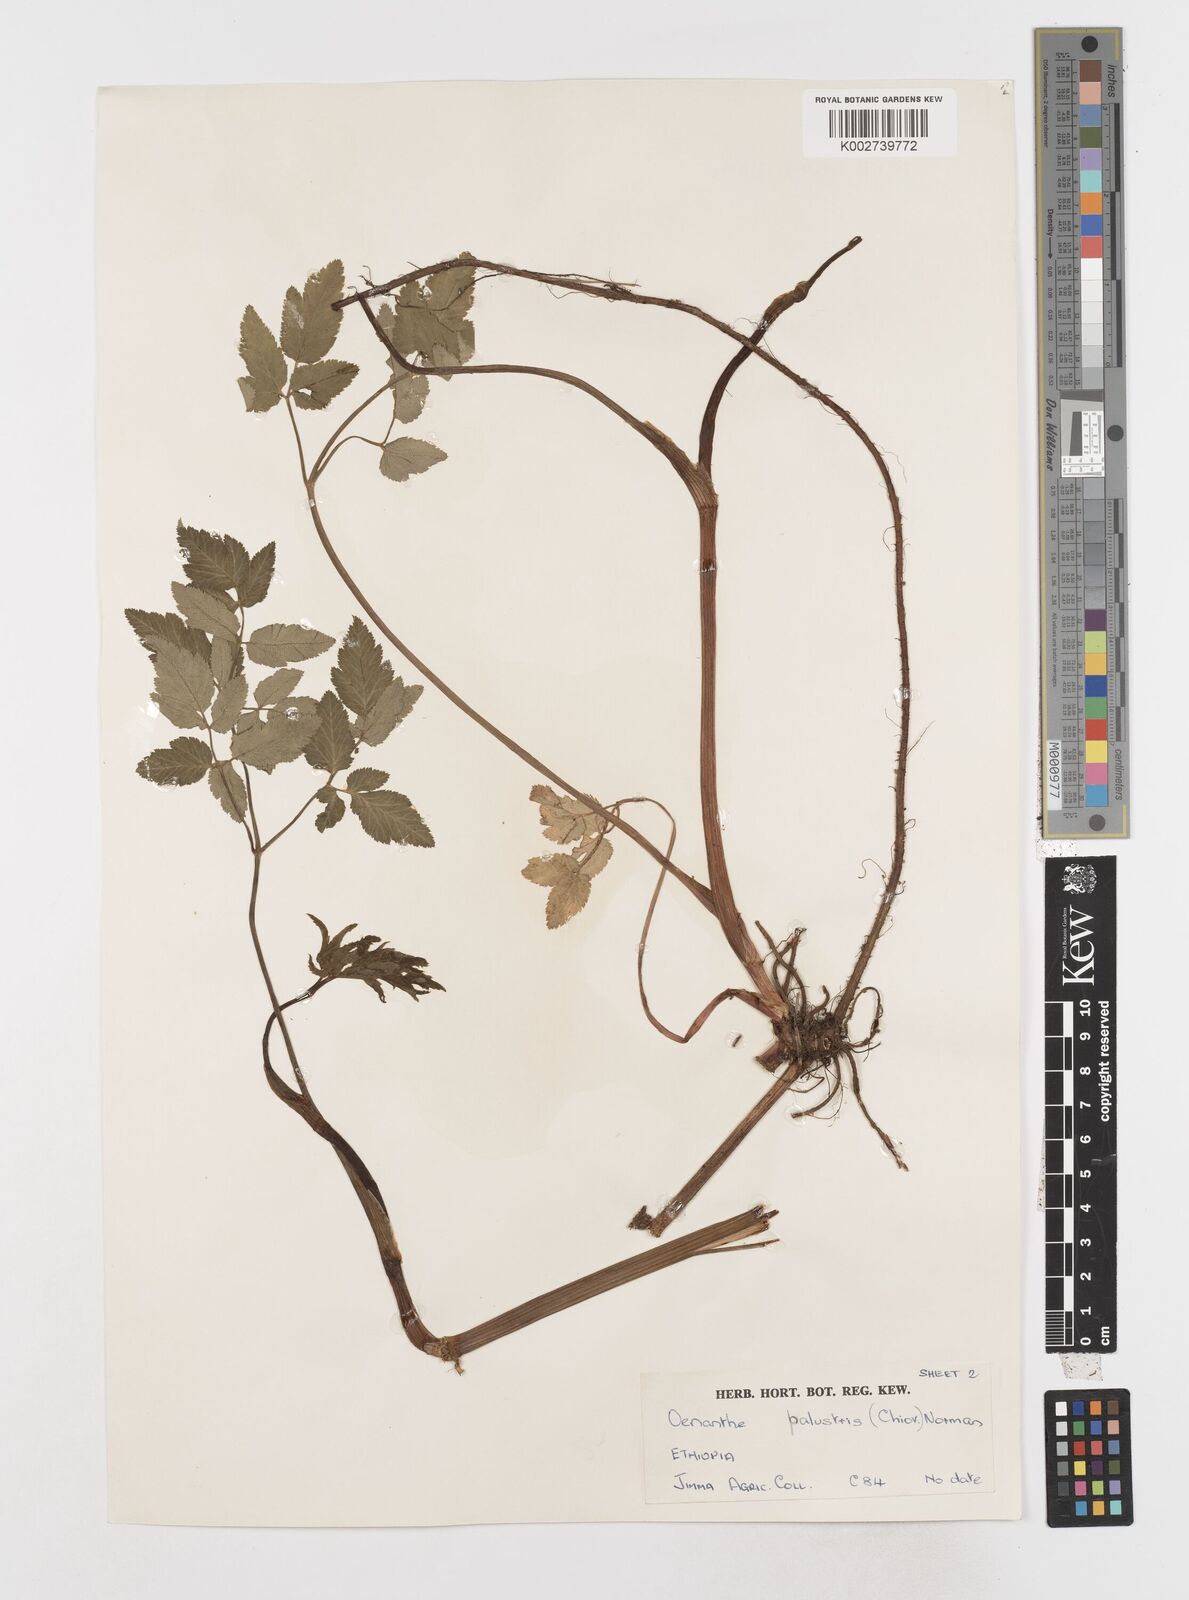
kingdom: Plantae
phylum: Tracheophyta
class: Magnoliopsida
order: Apiales
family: Apiaceae
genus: Oenanthe
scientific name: Oenanthe palustris
